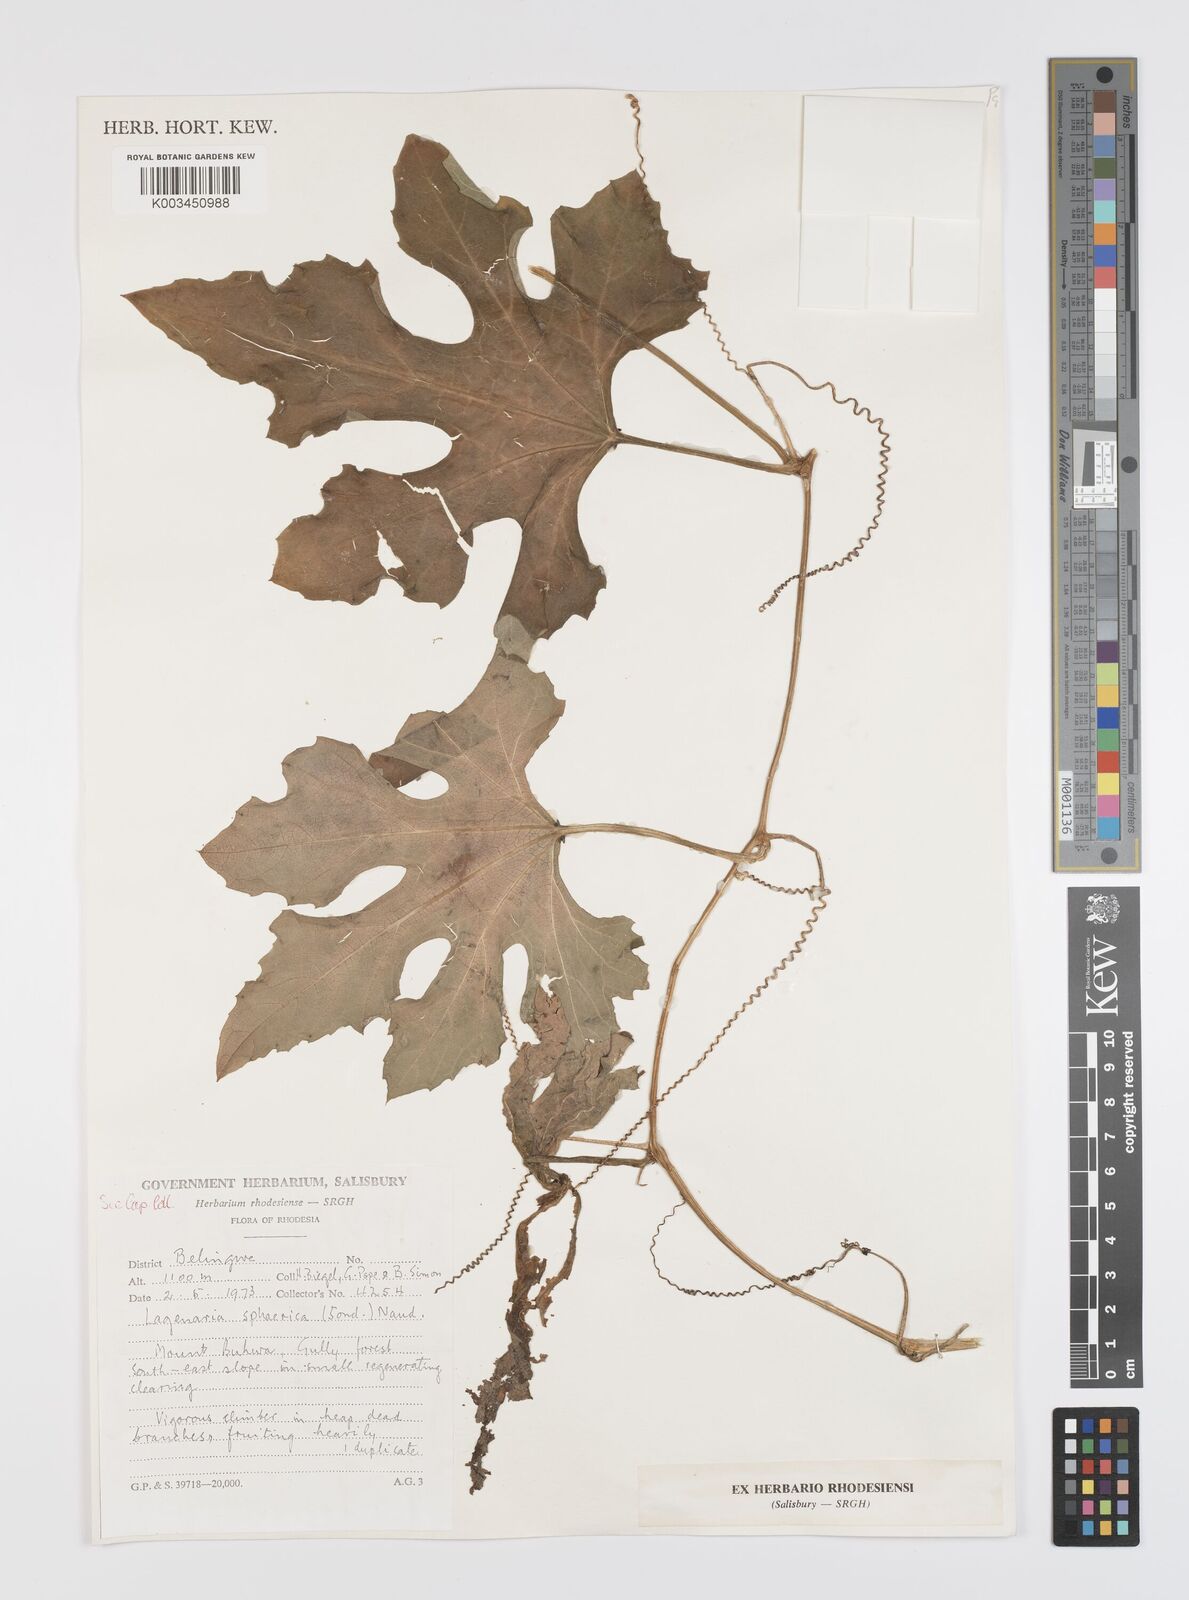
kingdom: Plantae
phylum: Tracheophyta
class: Magnoliopsida
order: Cucurbitales
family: Cucurbitaceae
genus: Lagenaria
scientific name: Lagenaria sphaerica
